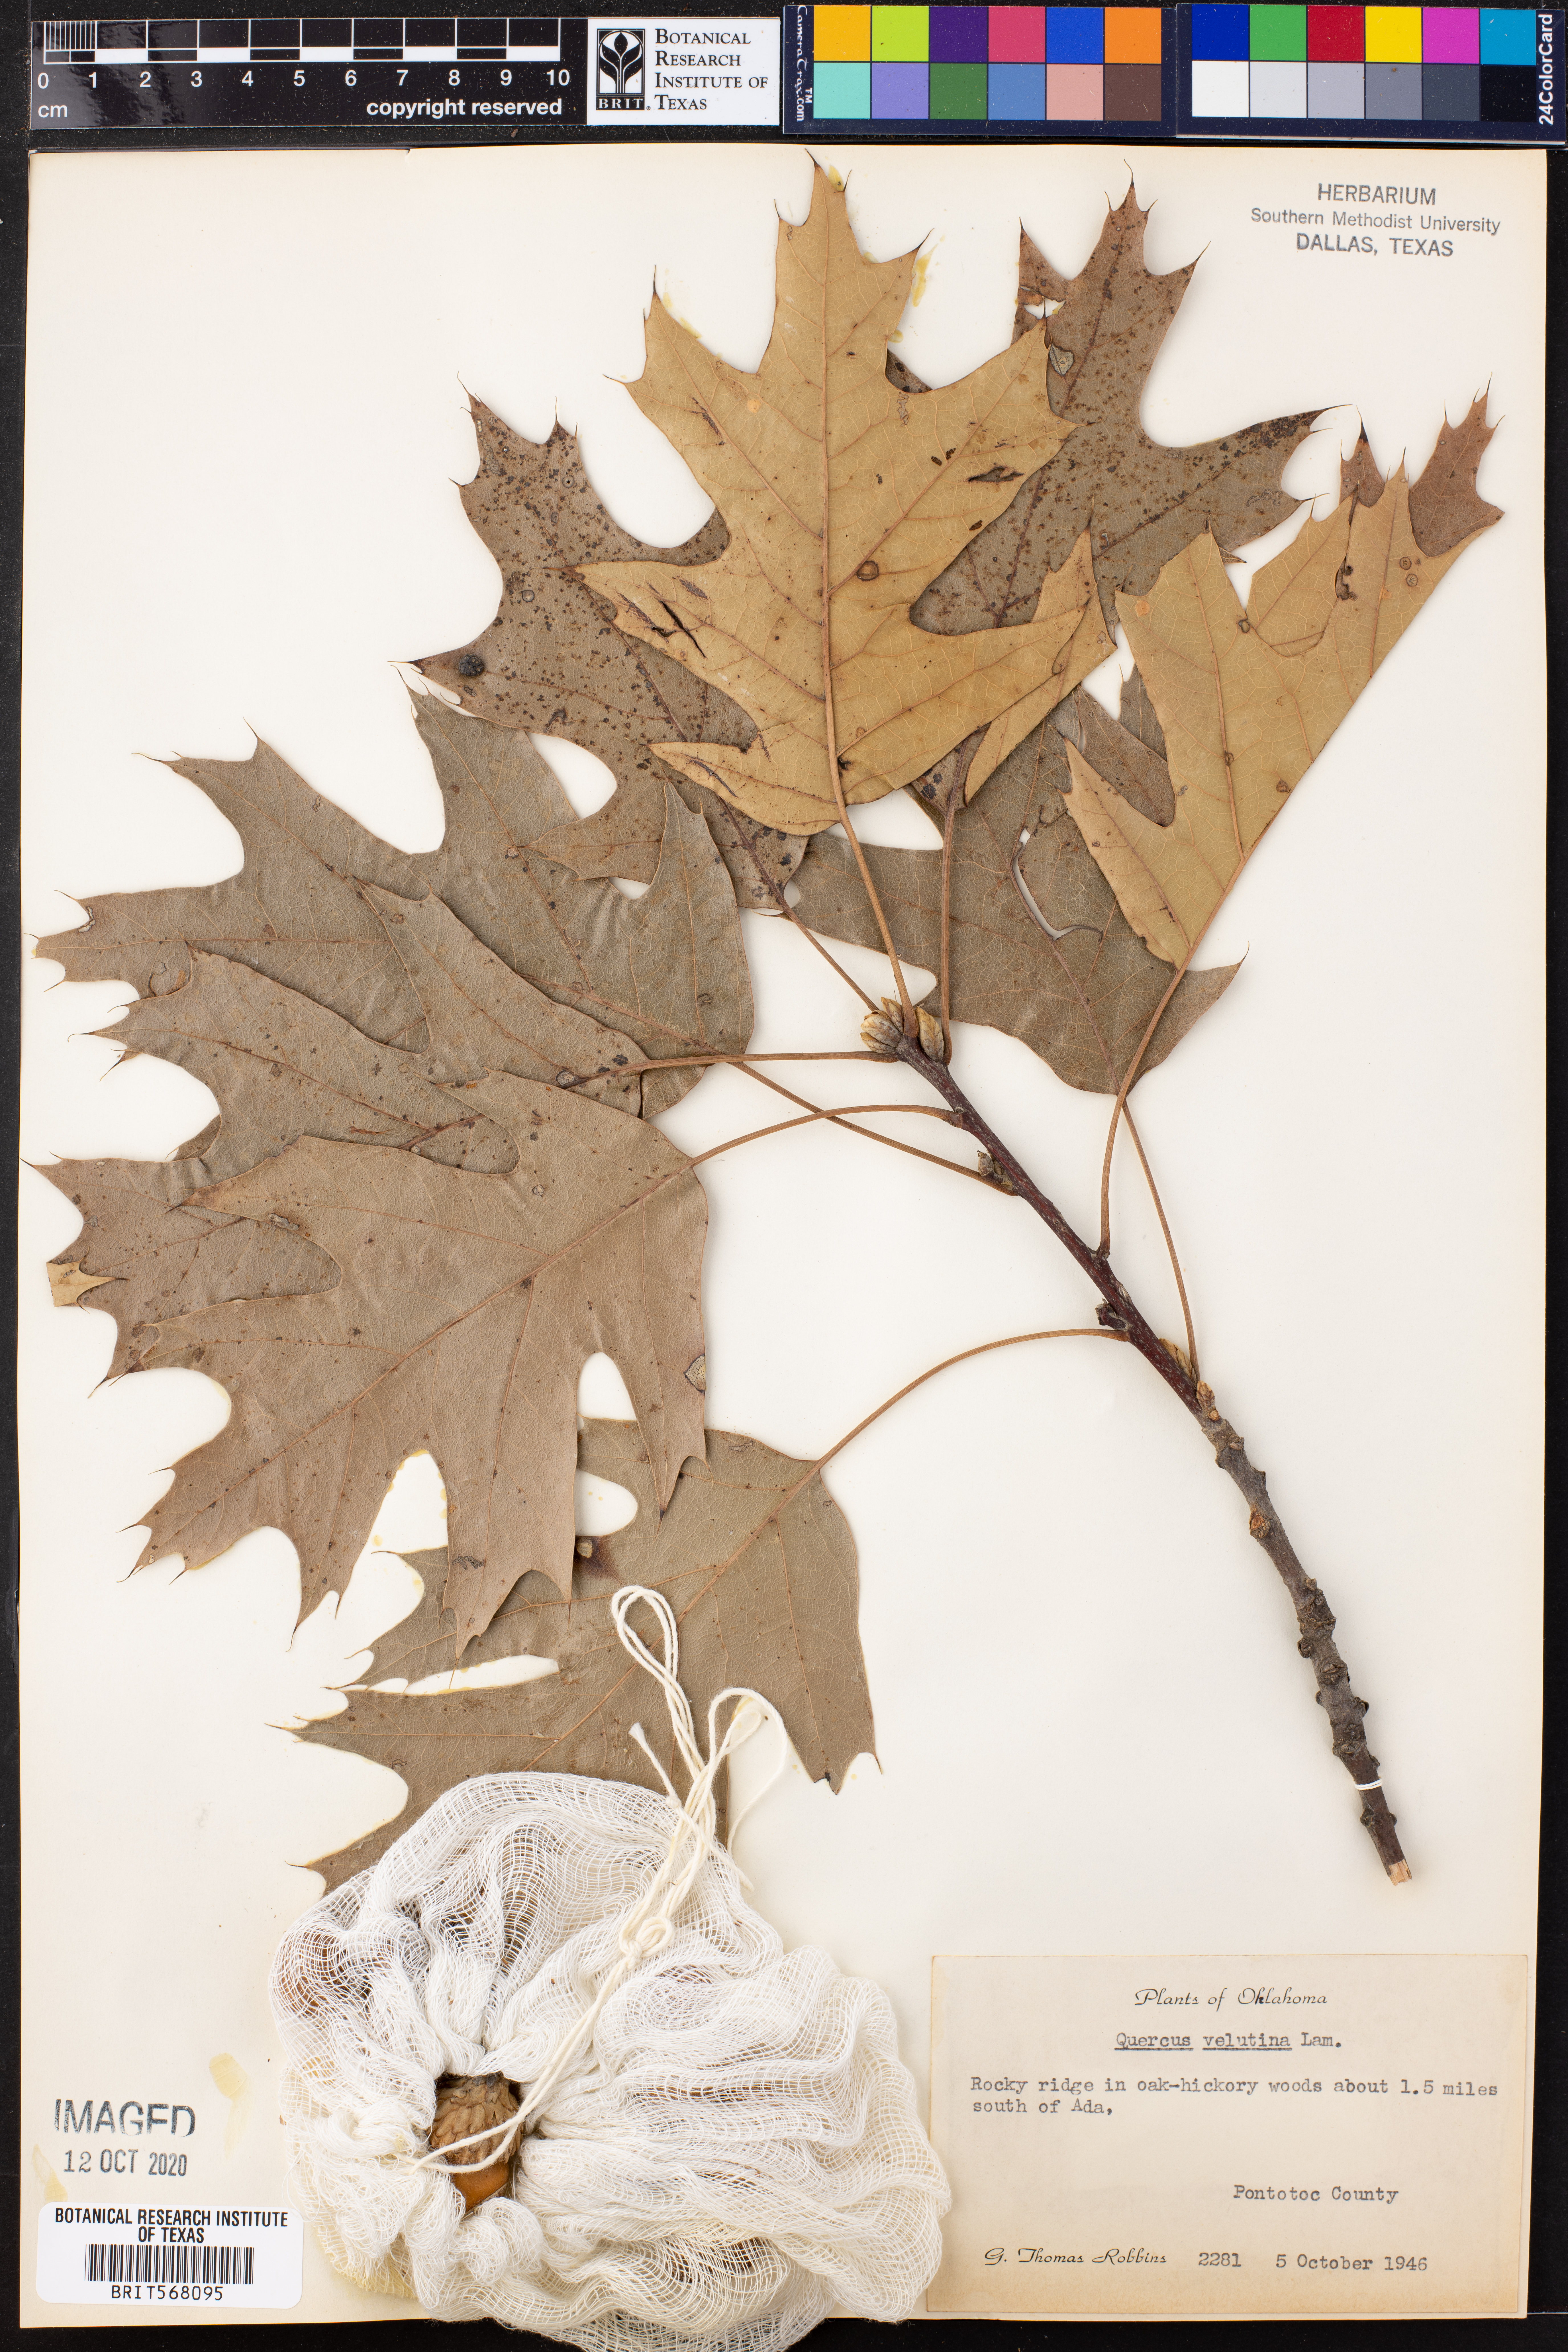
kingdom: Plantae
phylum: Tracheophyta
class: Magnoliopsida
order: Fagales
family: Fagaceae
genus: Quercus
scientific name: Quercus velutina
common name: Black oak
